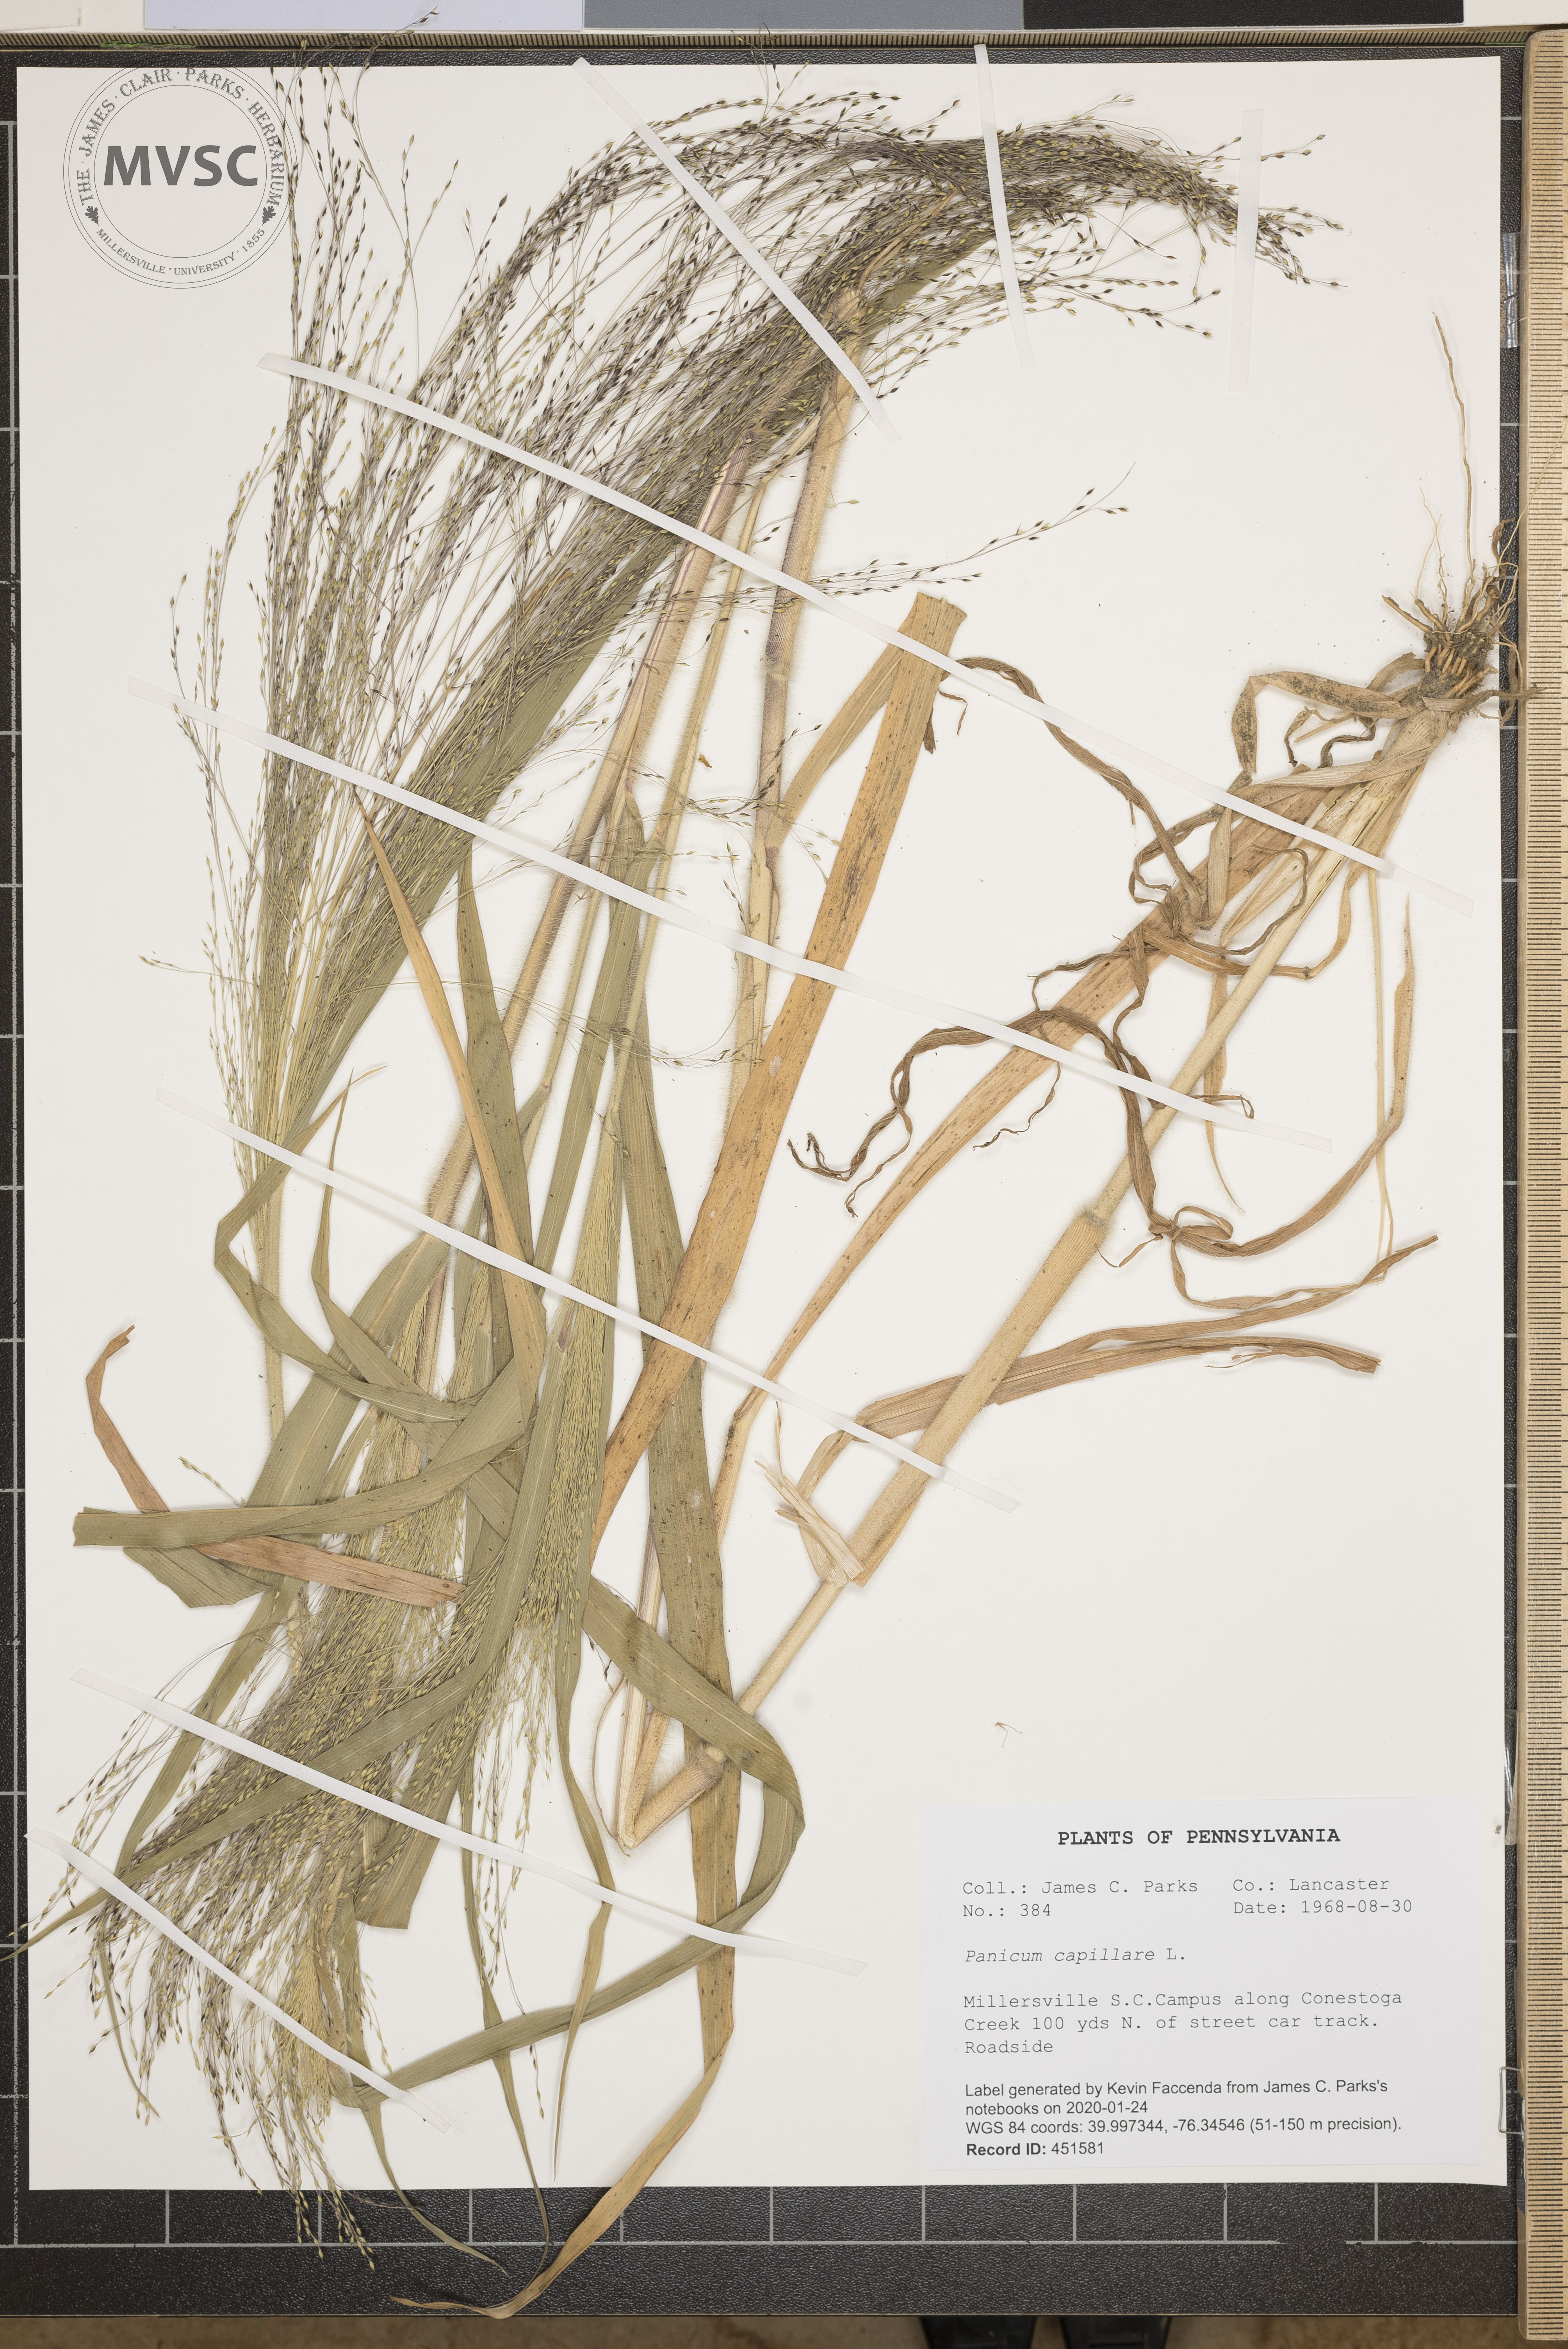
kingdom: Plantae
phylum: Tracheophyta
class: Liliopsida
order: Poales
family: Poaceae
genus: Panicum
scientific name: Panicum capillare
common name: Witch-grass
